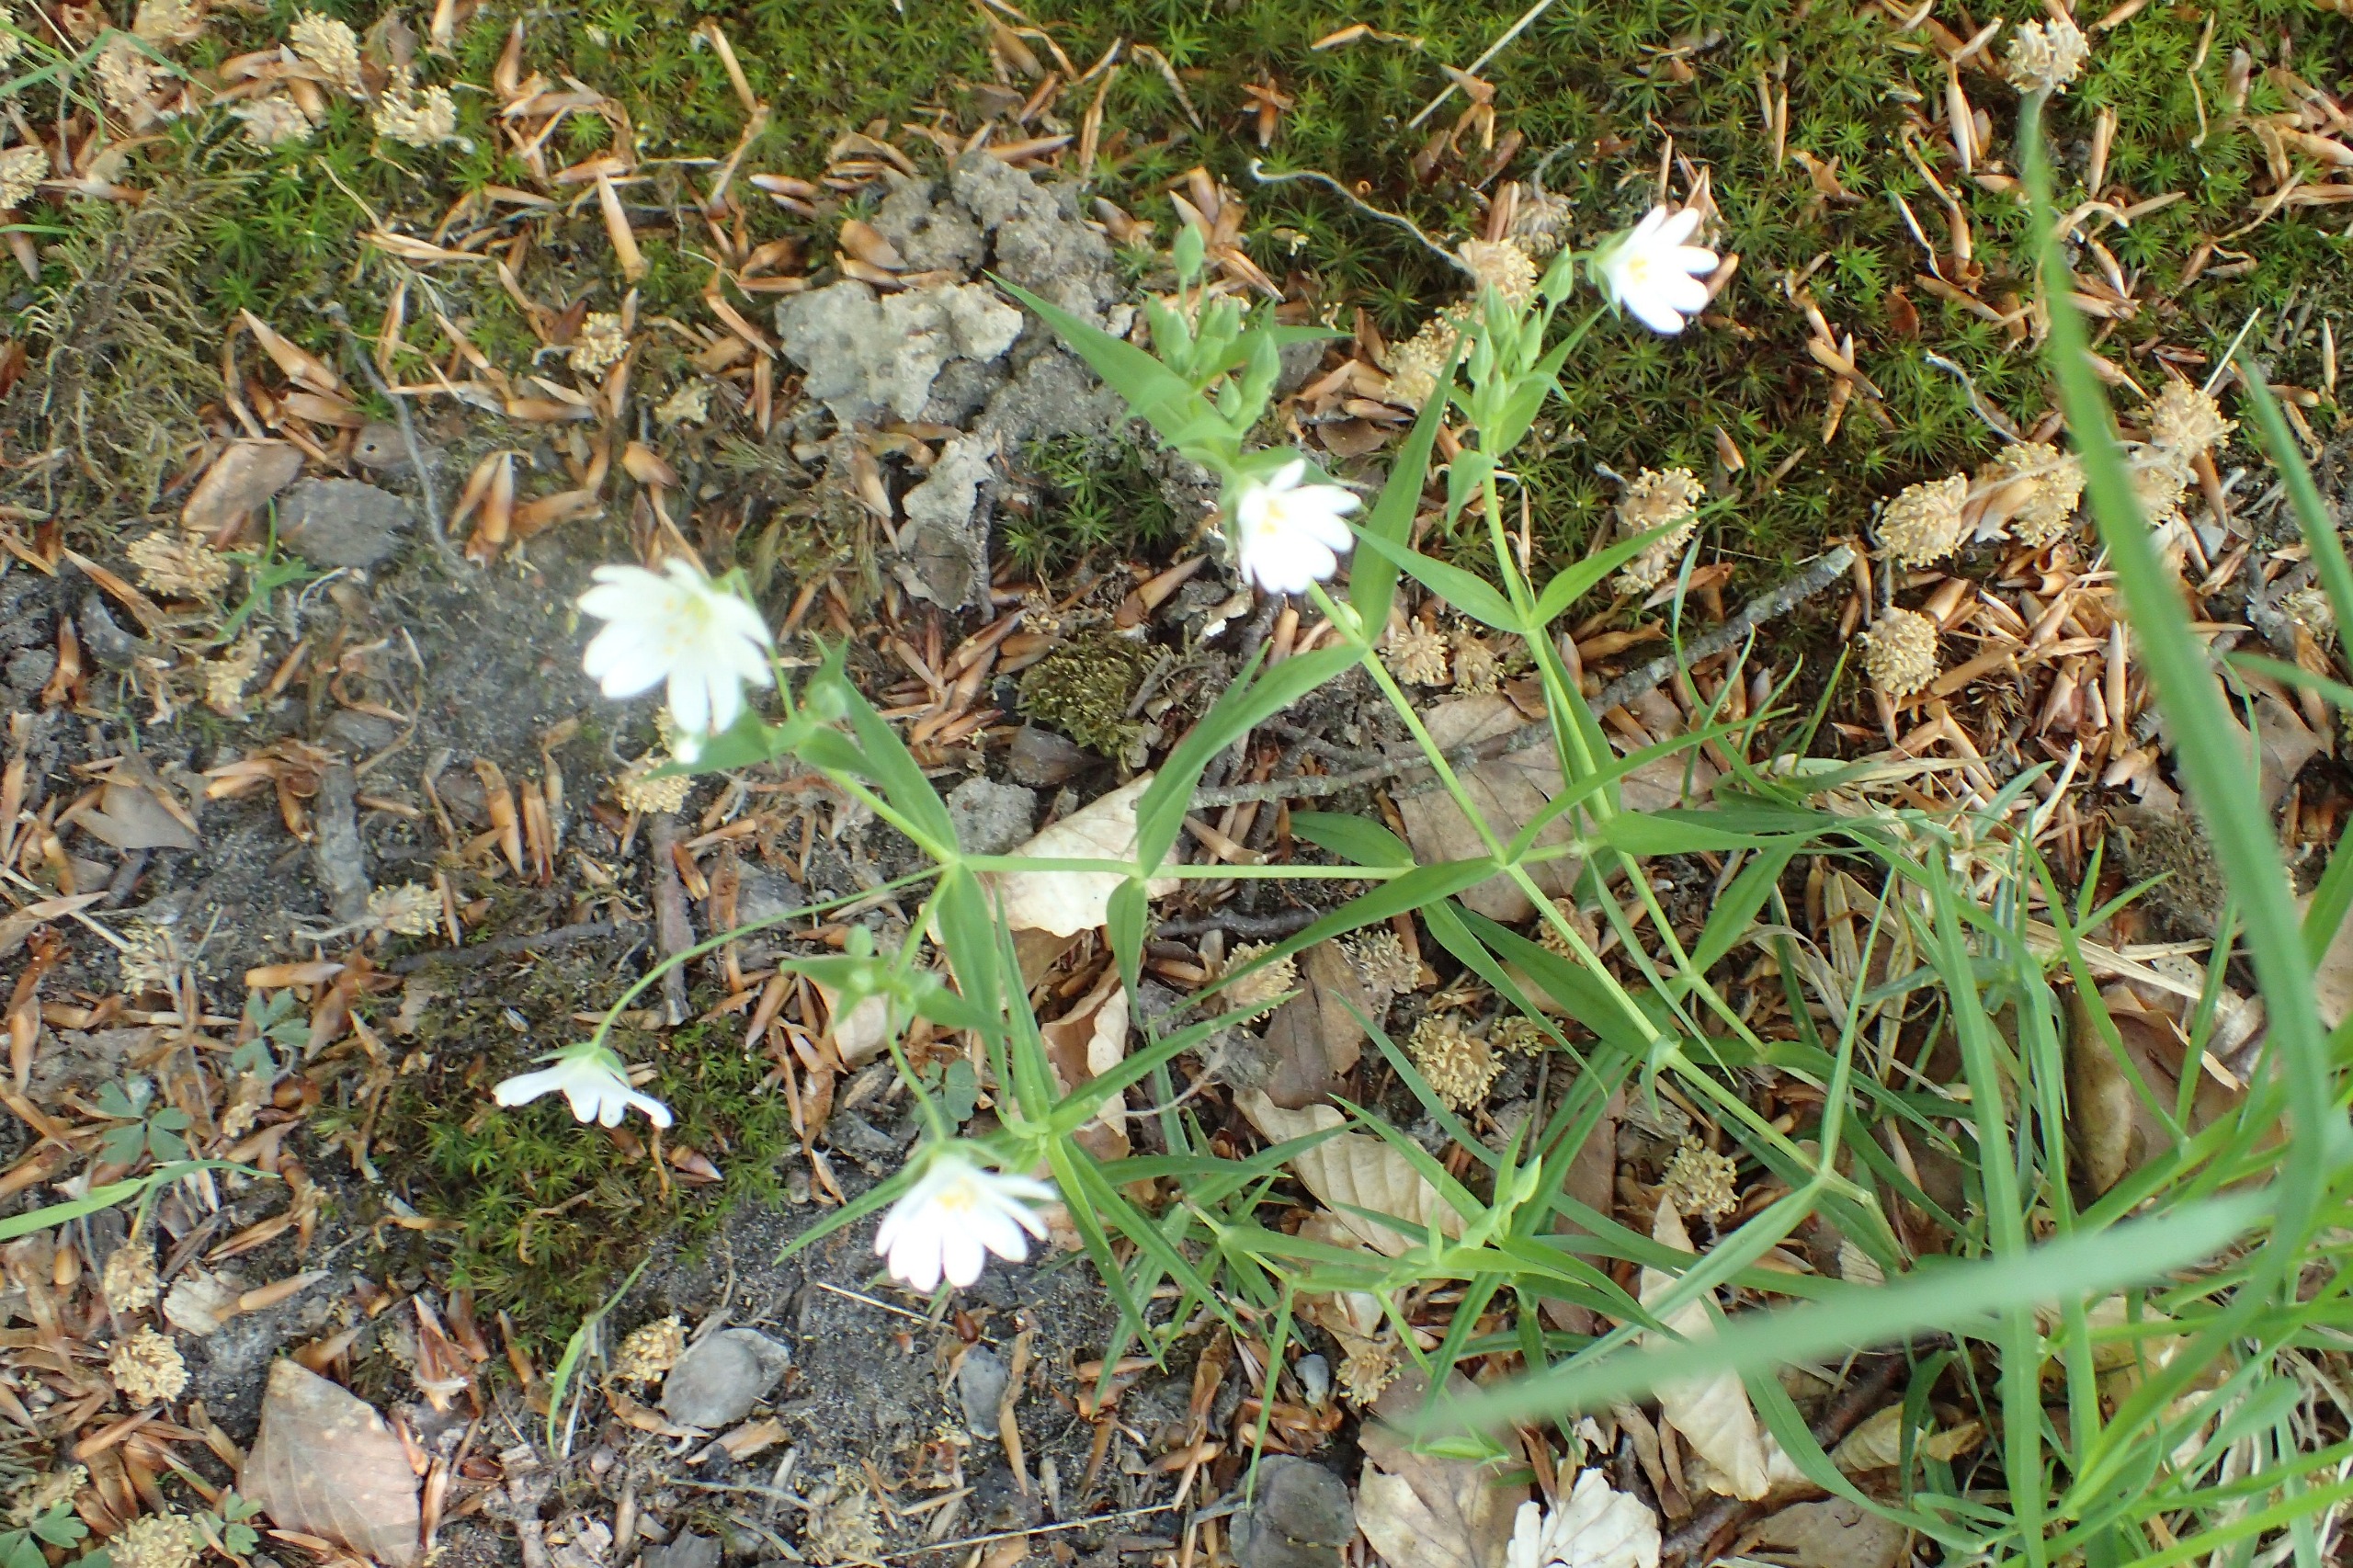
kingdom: Plantae
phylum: Tracheophyta
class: Magnoliopsida
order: Caryophyllales
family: Caryophyllaceae
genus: Rabelera
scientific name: Rabelera holostea
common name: Stor fladstjerne
